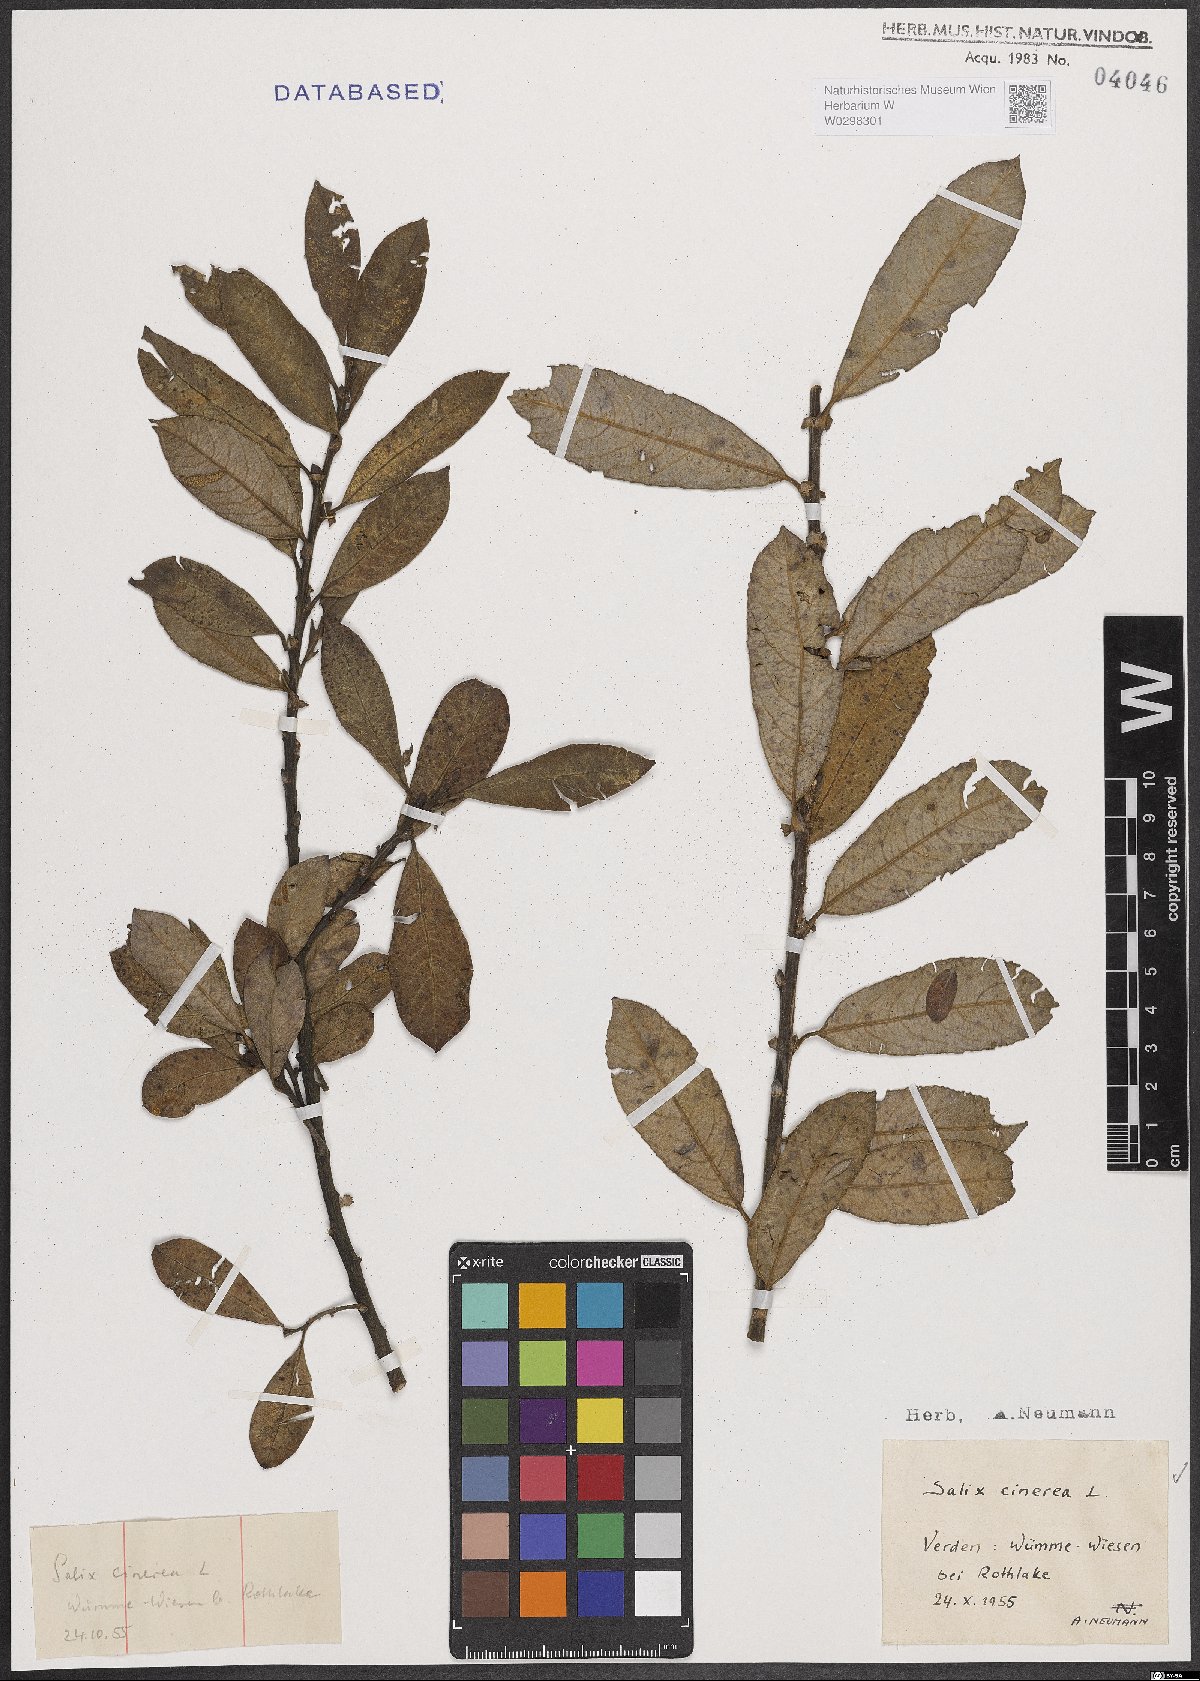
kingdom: Plantae
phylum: Tracheophyta
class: Magnoliopsida
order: Malpighiales
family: Salicaceae
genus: Salix
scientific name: Salix cinerea
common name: Common sallow
